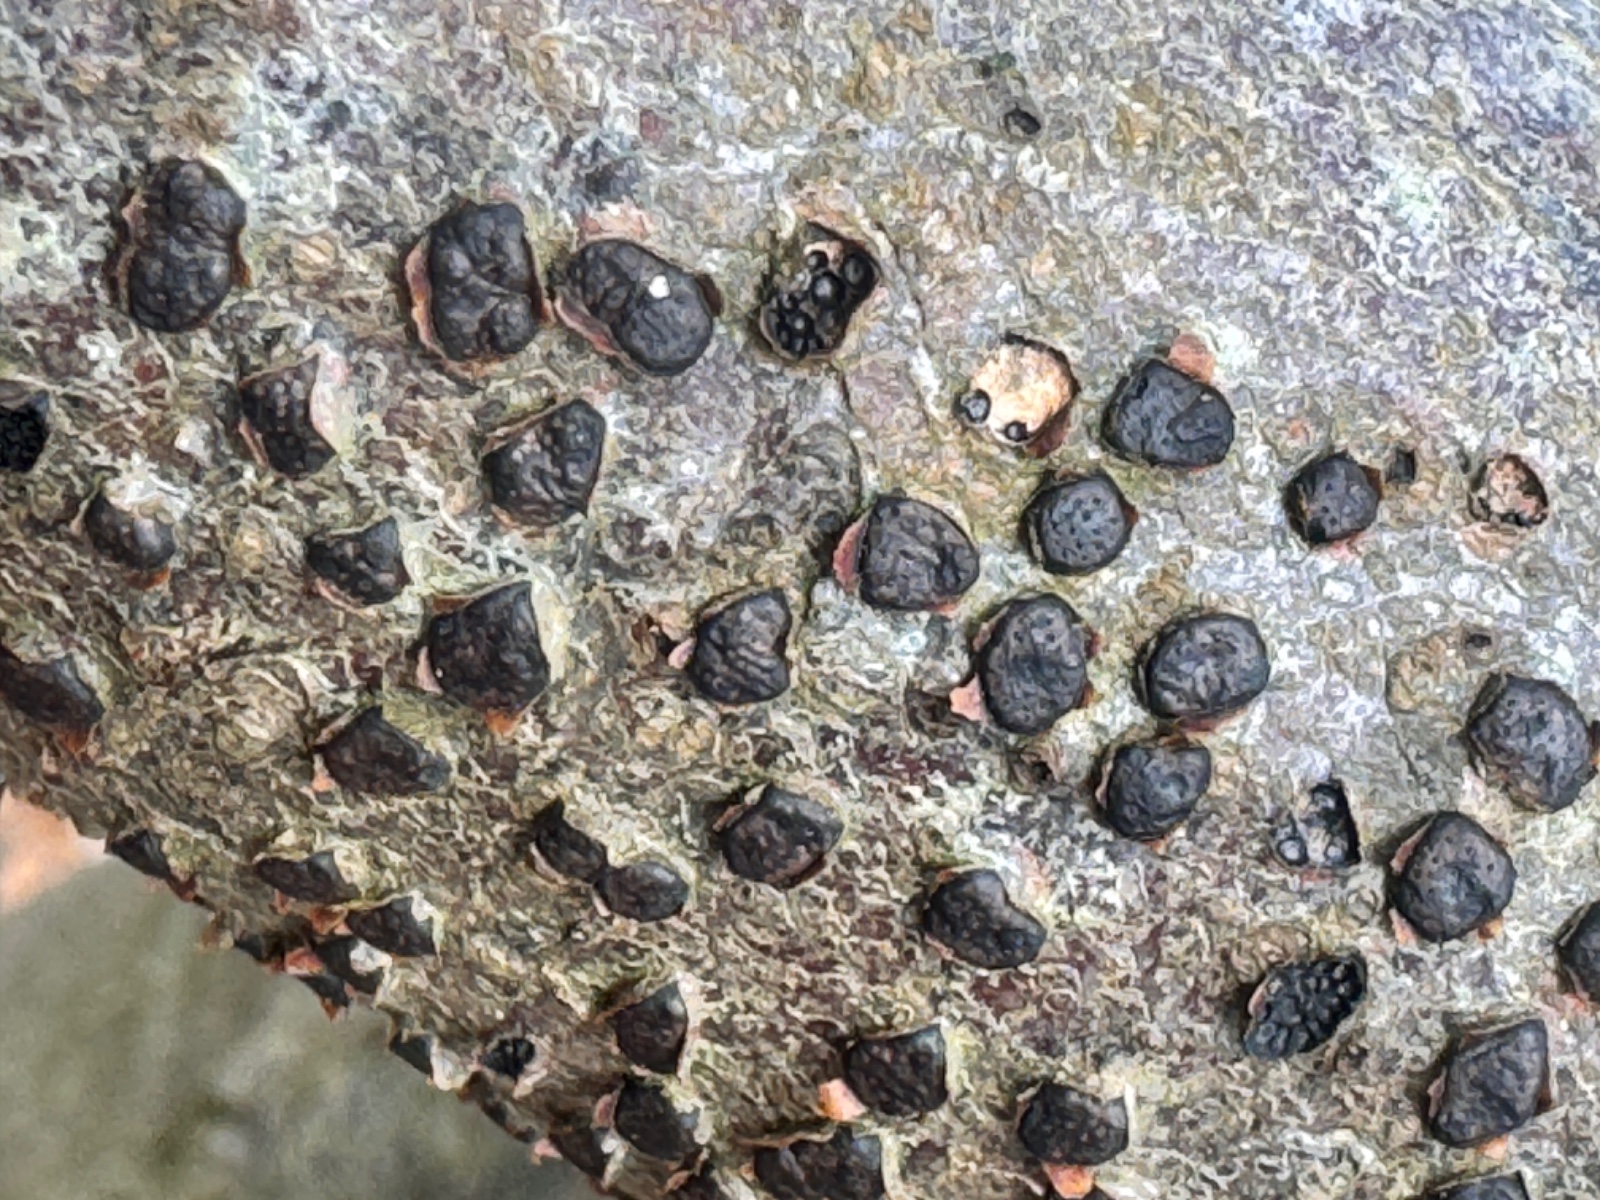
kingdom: Fungi
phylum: Ascomycota
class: Sordariomycetes
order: Xylariales
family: Diatrypaceae
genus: Diatrype
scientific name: Diatrype disciformis
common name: kant-kulskorpe
